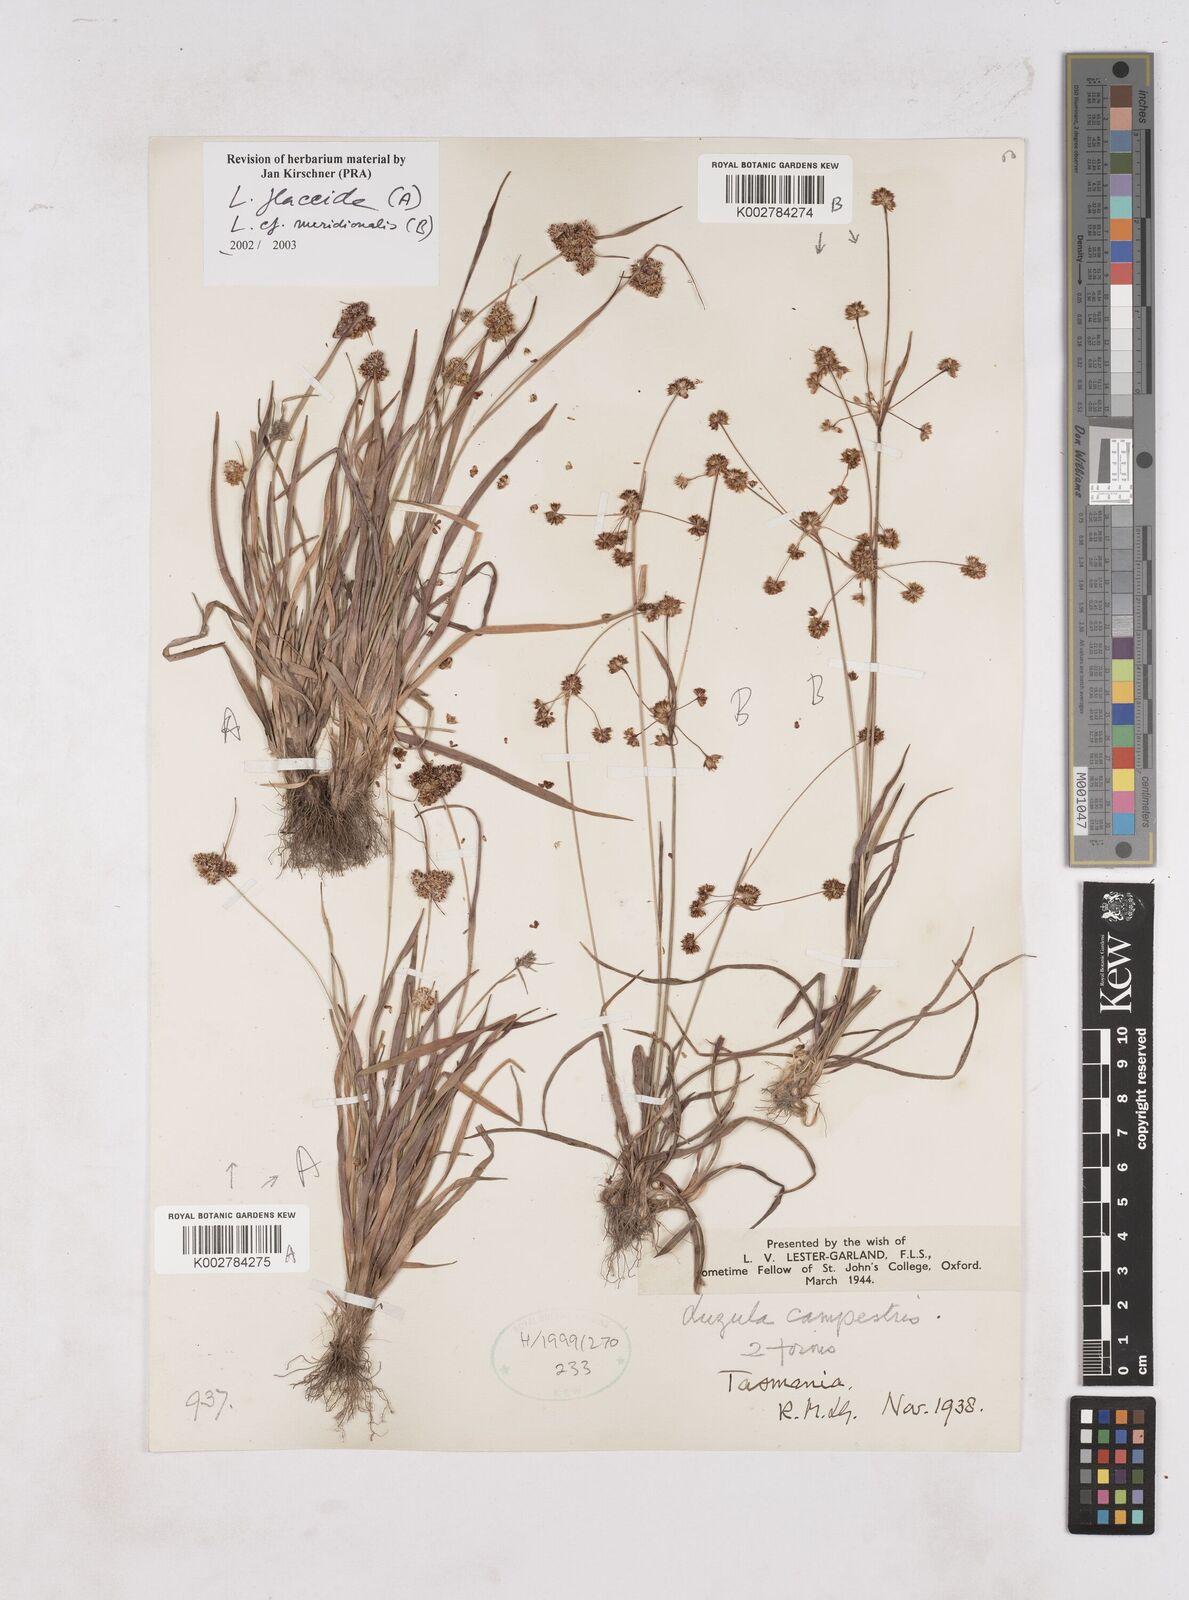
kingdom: Plantae
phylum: Tracheophyta
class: Liliopsida
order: Poales
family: Juncaceae
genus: Luzula
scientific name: Luzula flaccida
